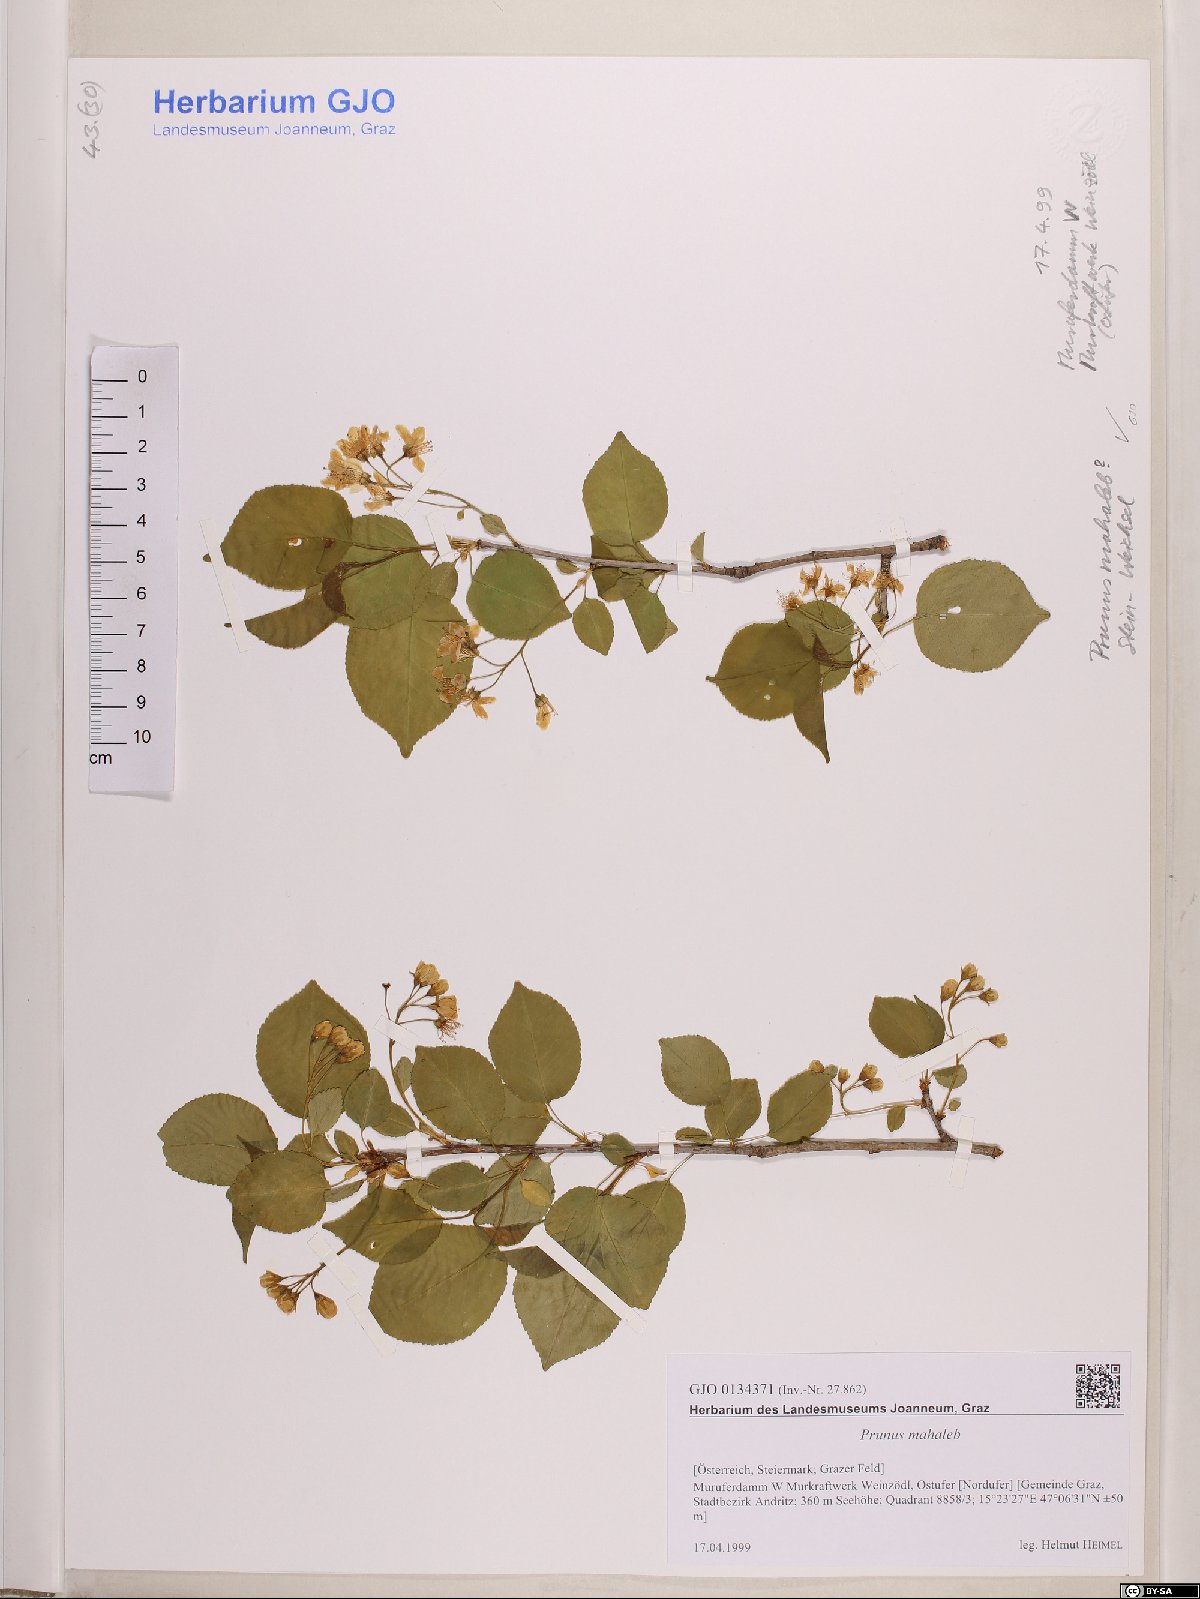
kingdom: Plantae
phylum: Tracheophyta
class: Magnoliopsida
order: Rosales
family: Rosaceae
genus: Prunus
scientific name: Prunus mahaleb
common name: Mahaleb cherry
